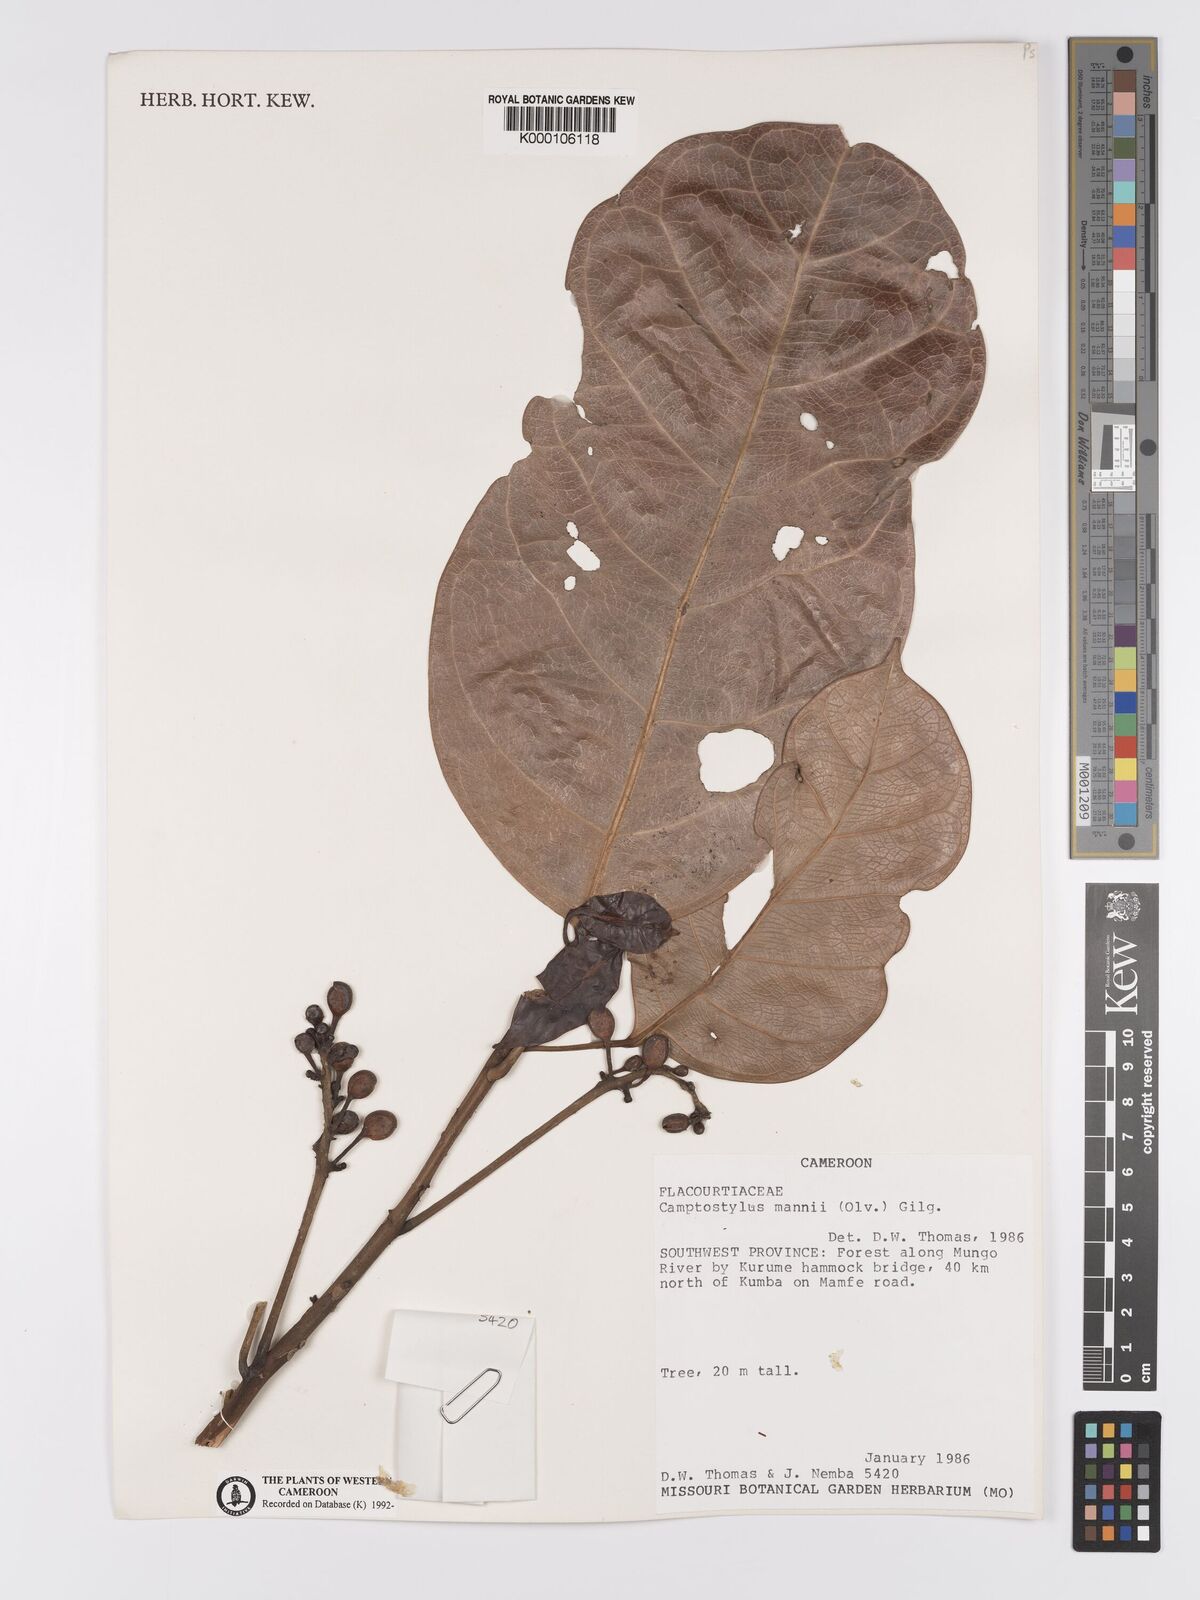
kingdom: Plantae
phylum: Tracheophyta
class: Magnoliopsida
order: Malpighiales
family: Achariaceae
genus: Camptostylus
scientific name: Camptostylus mannii
